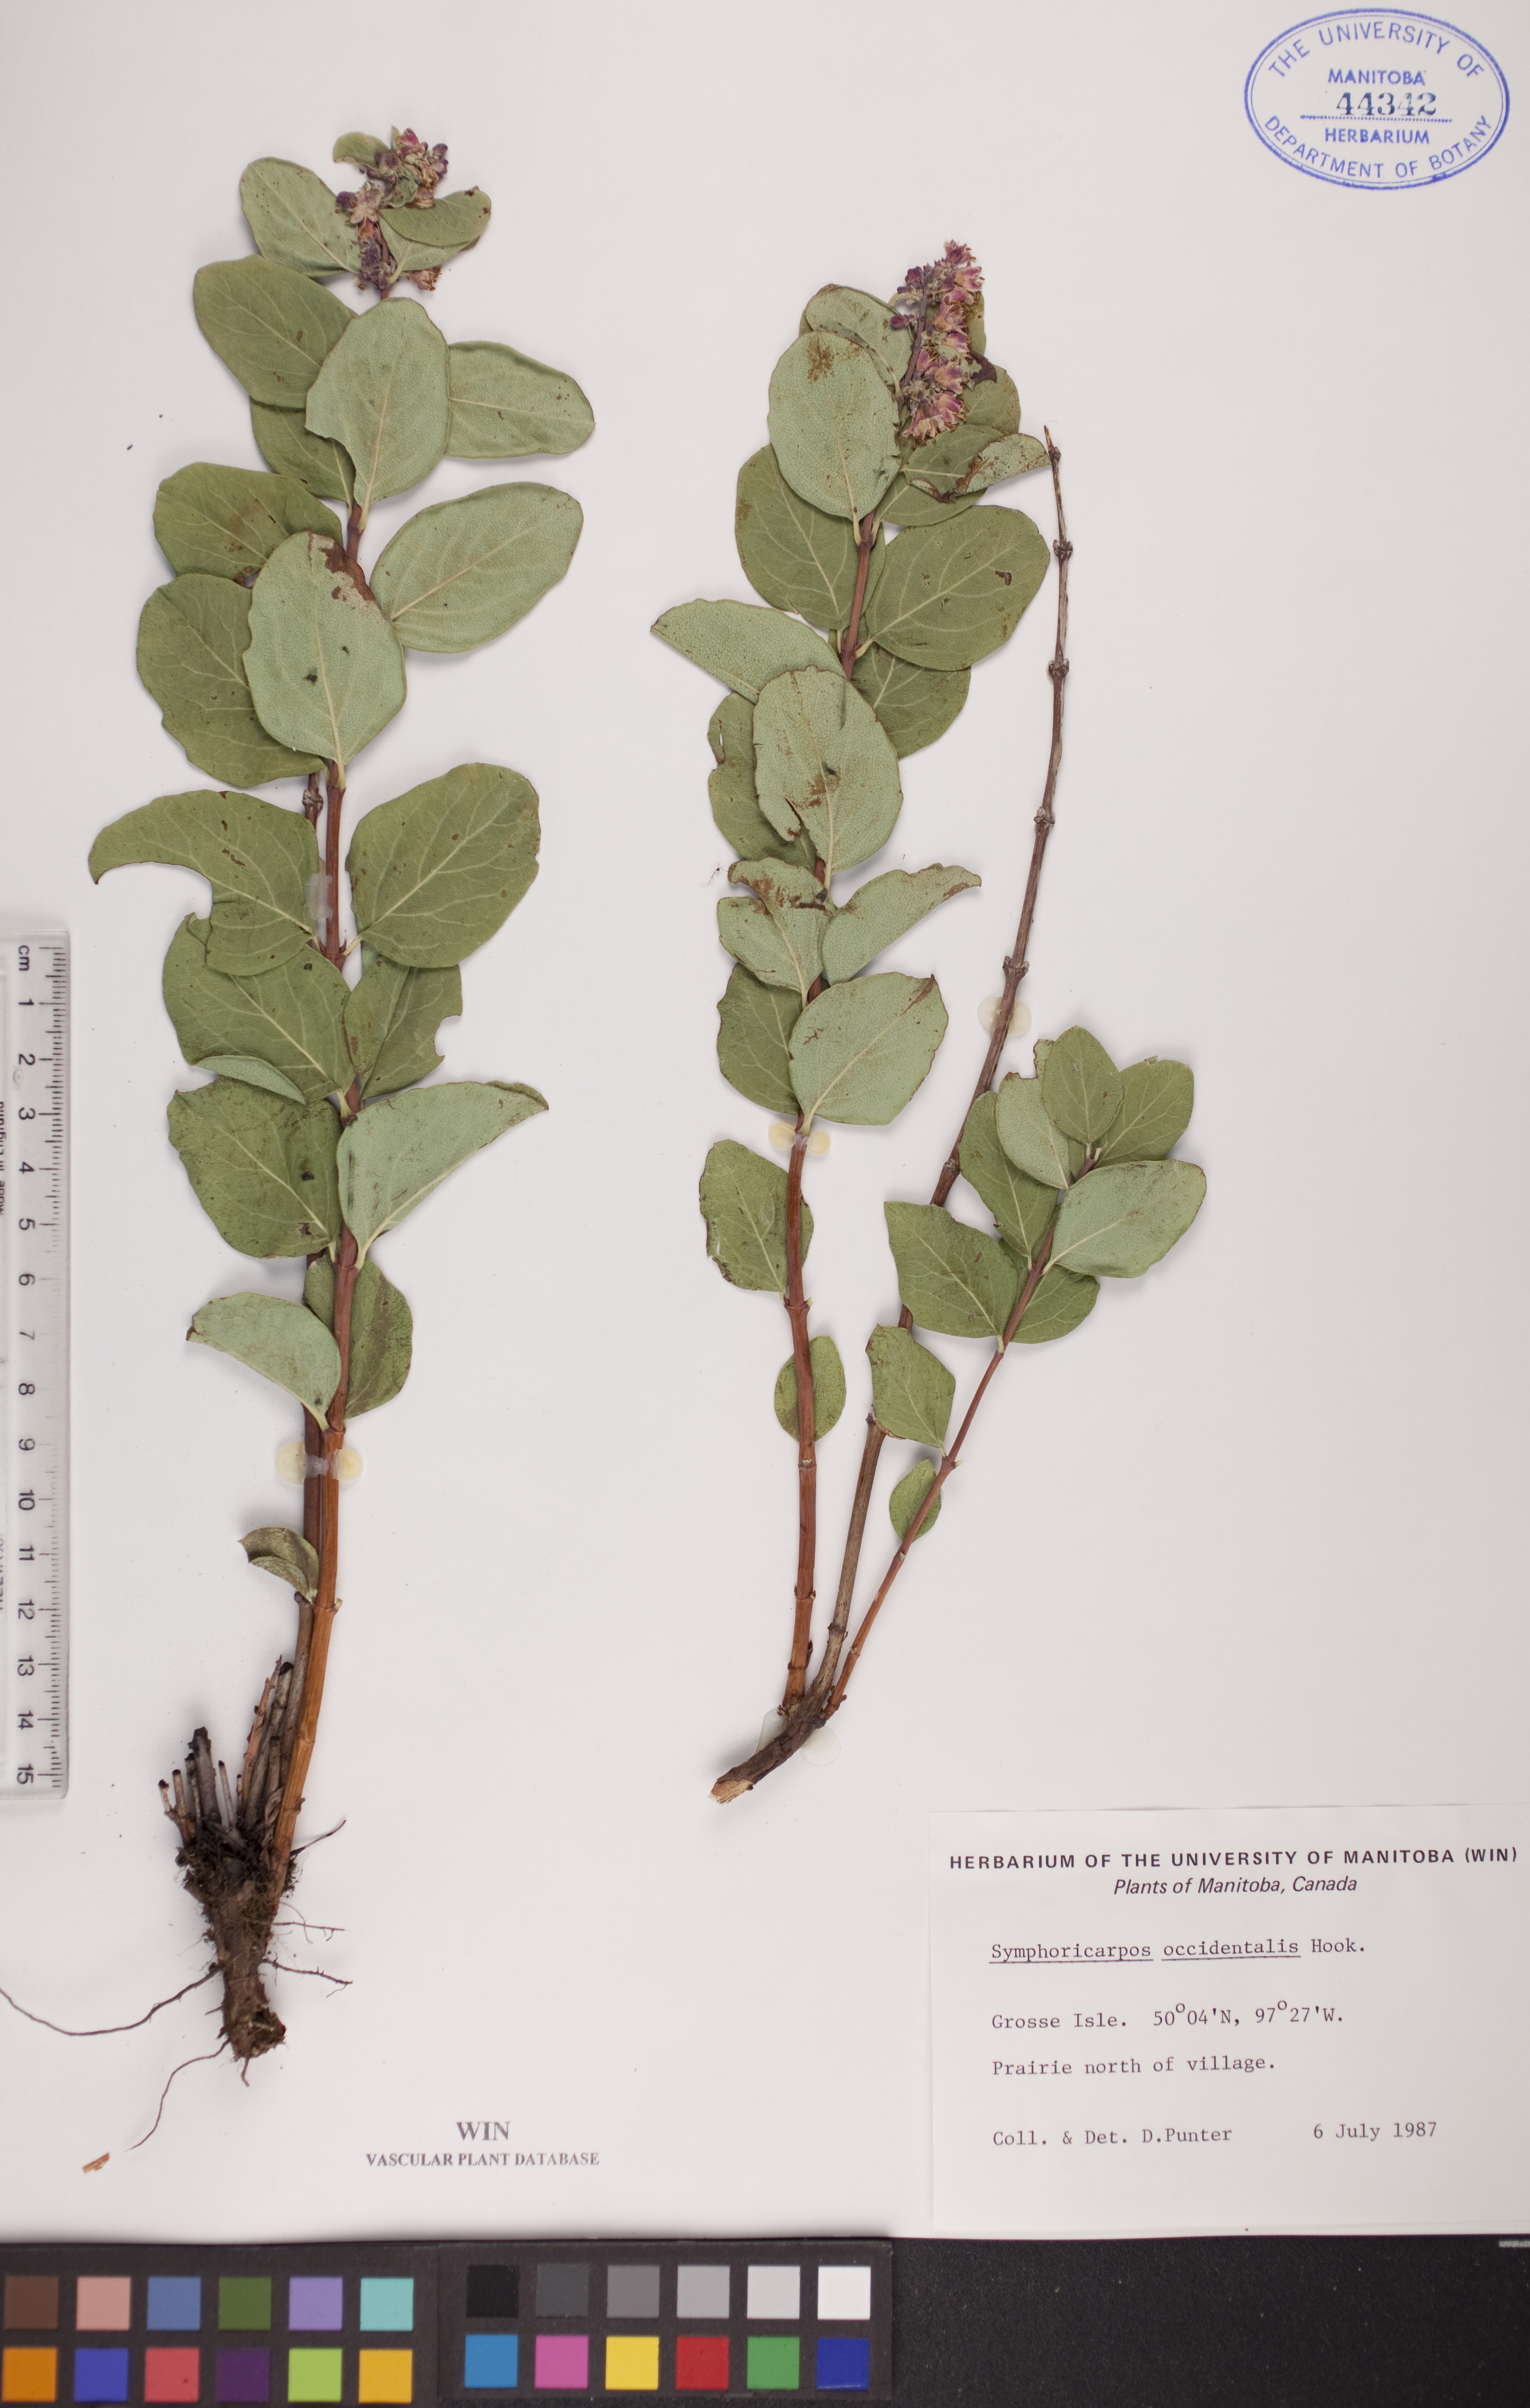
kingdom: Plantae
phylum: Tracheophyta
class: Magnoliopsida
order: Dipsacales
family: Caprifoliaceae
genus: Symphoricarpos
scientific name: Symphoricarpos occidentalis
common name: Wolfberry
